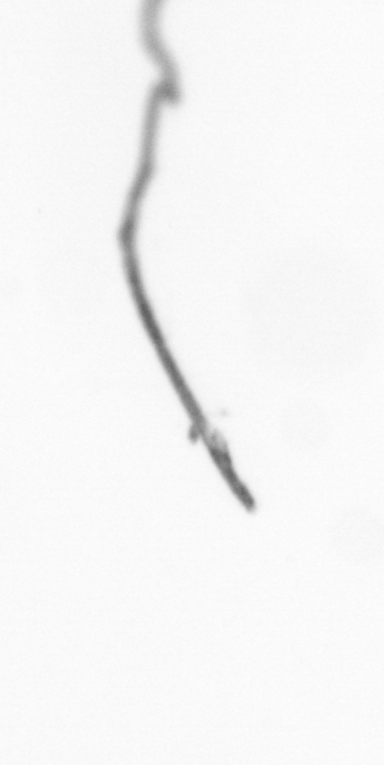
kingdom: Chromista
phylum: Ochrophyta
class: Bacillariophyceae
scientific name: Bacillariophyceae
